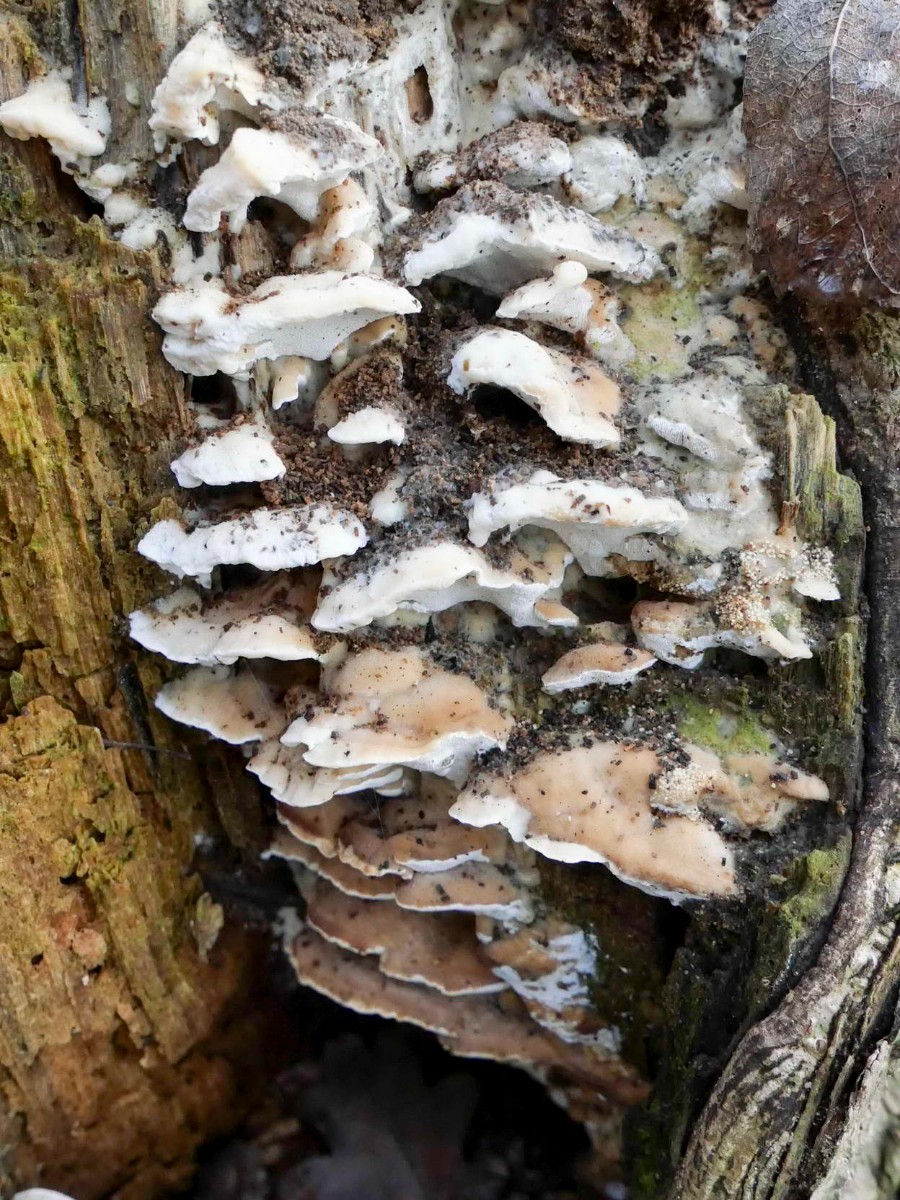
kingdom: Fungi
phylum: Basidiomycota
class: Agaricomycetes
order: Hymenochaetales
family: Oxyporaceae
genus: Oxyporus
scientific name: Oxyporus populinus
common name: sammenvokset trylleporesvamp
